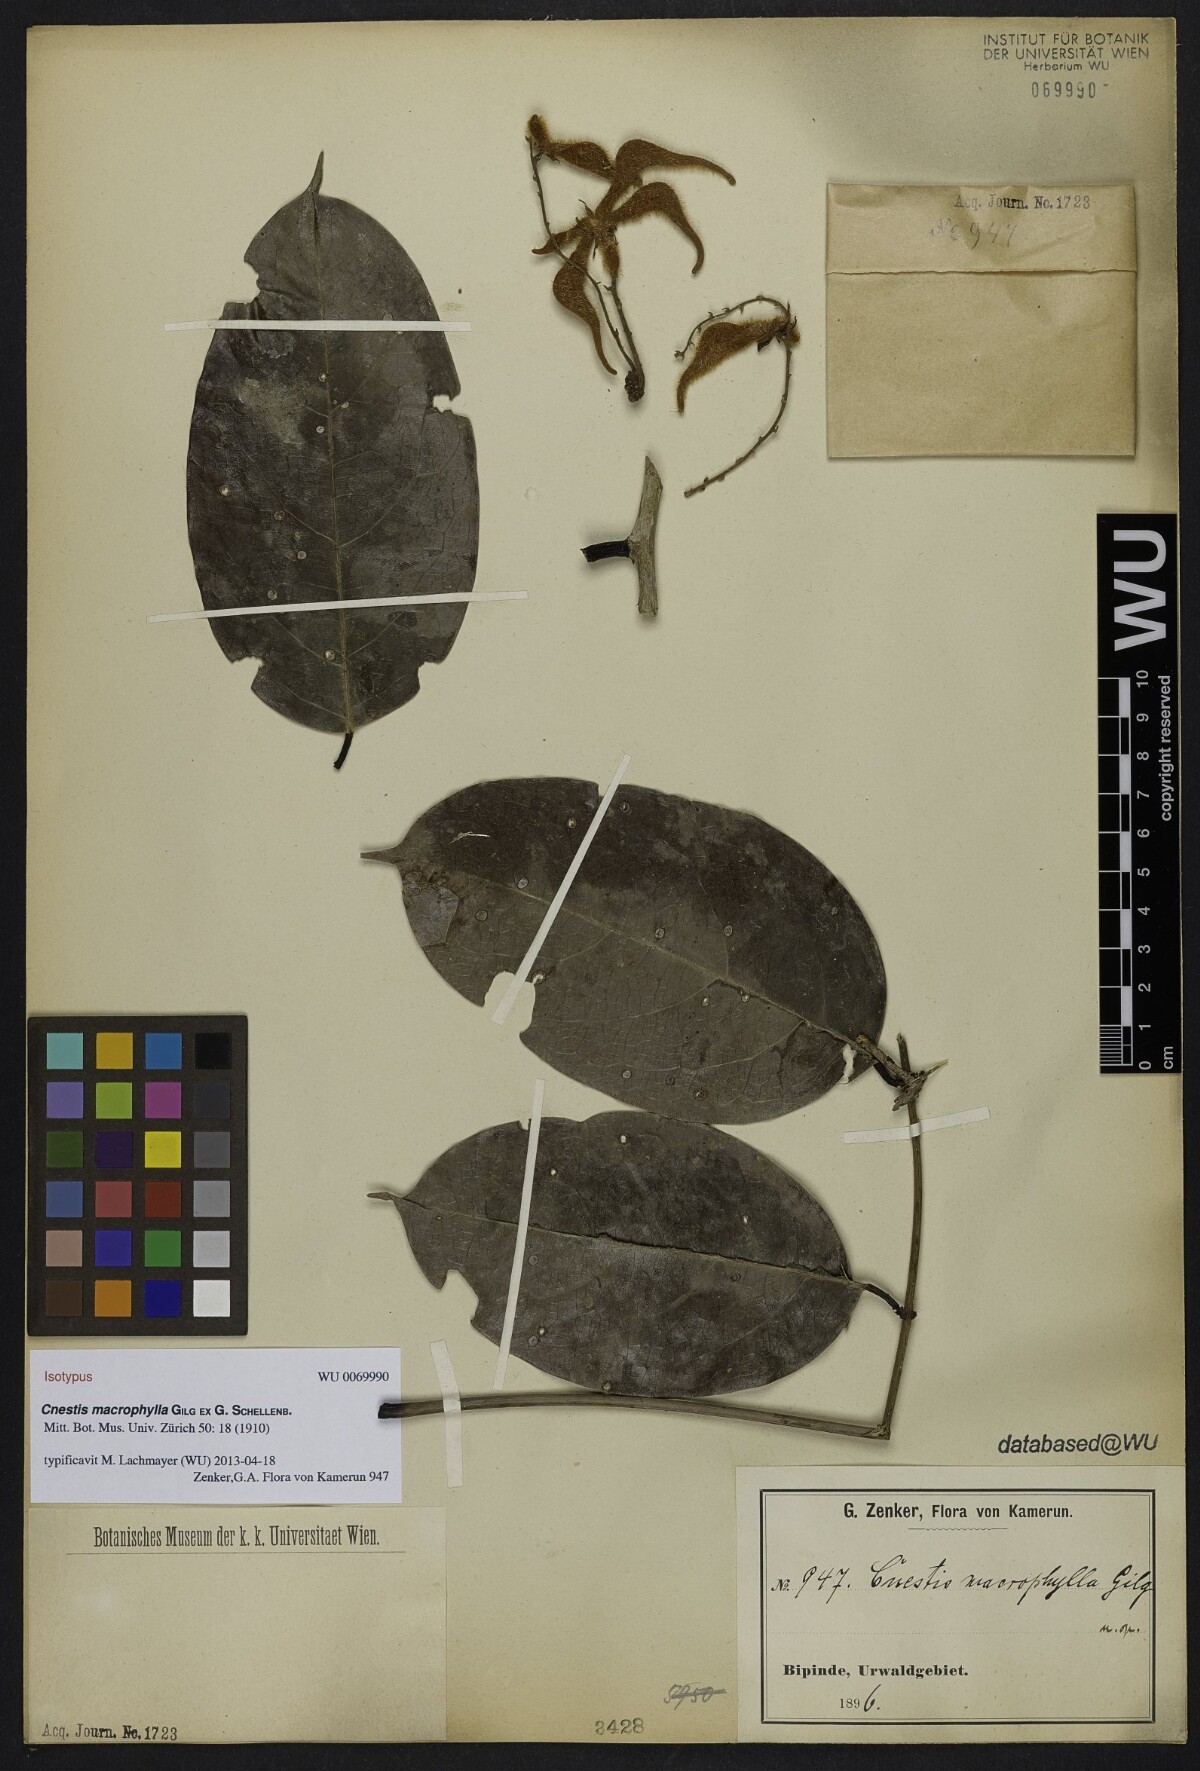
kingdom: Plantae
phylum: Tracheophyta
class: Magnoliopsida
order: Oxalidales
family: Connaraceae
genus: Cnestis
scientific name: Cnestis macrophylla
